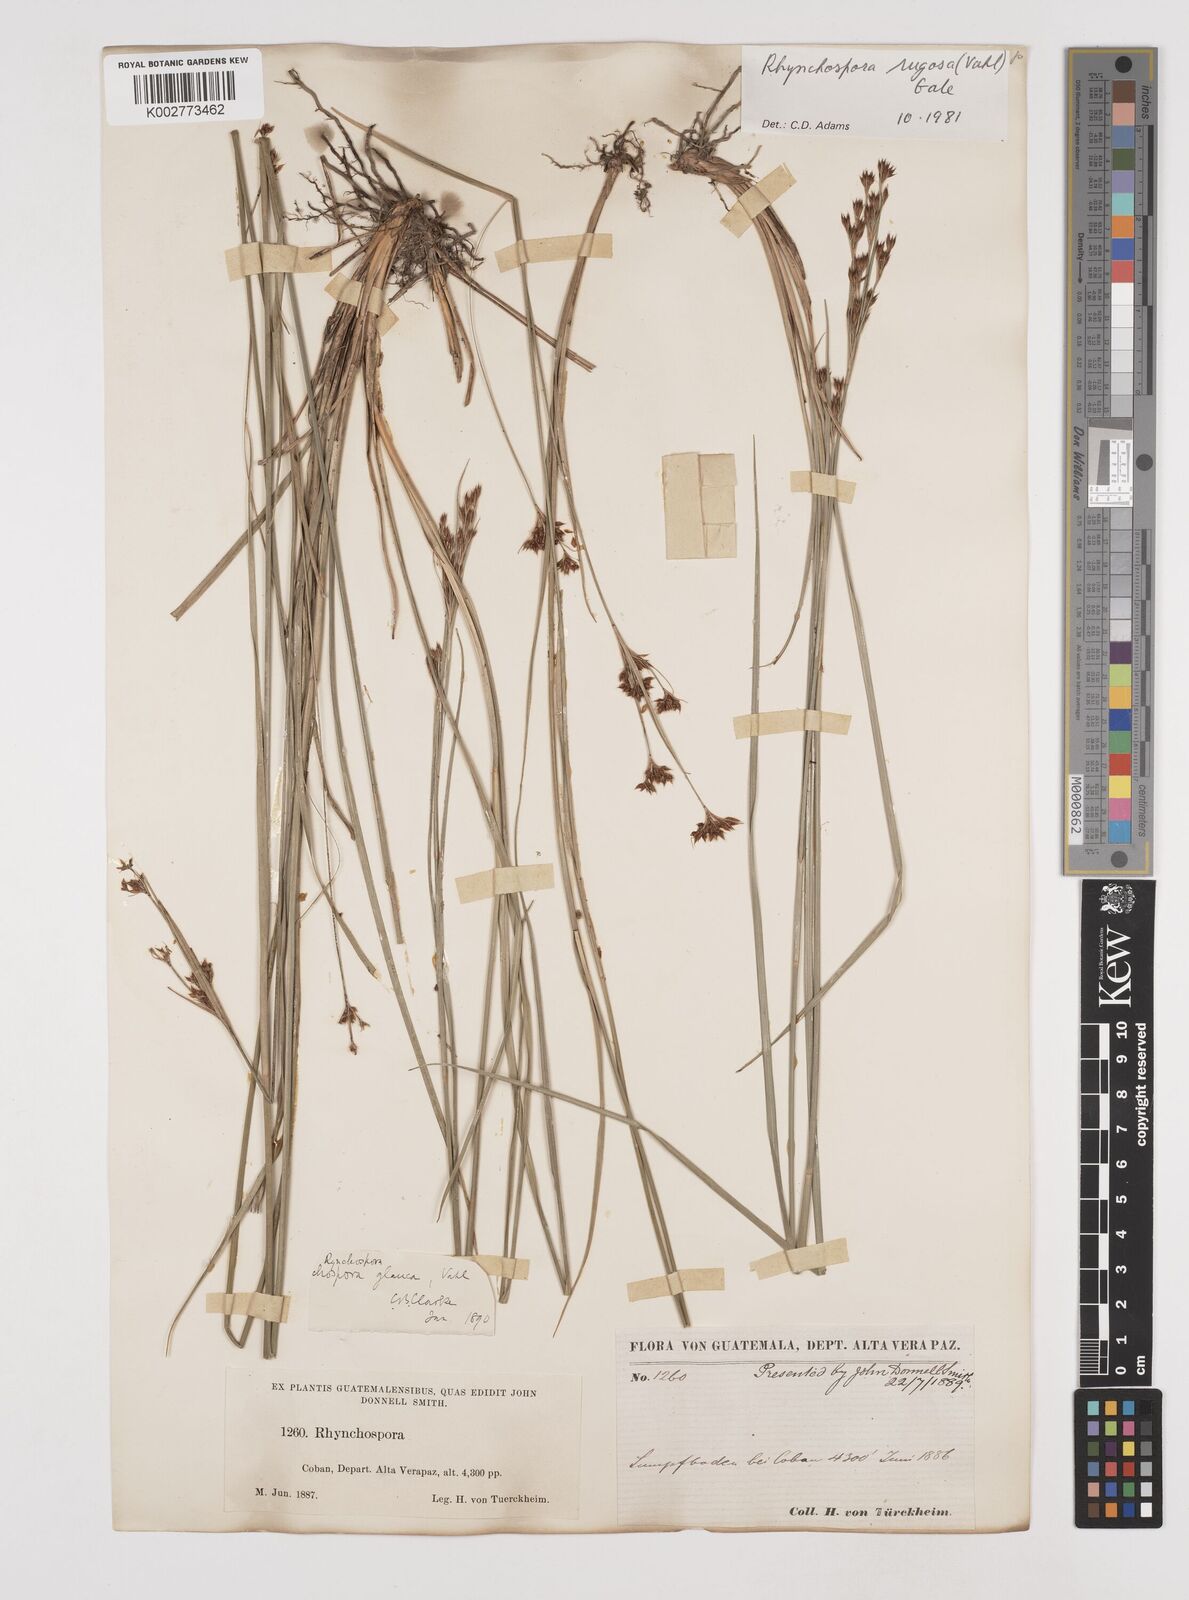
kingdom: Plantae
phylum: Tracheophyta
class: Liliopsida
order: Poales
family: Cyperaceae
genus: Rhynchospora
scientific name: Rhynchospora rugosa
